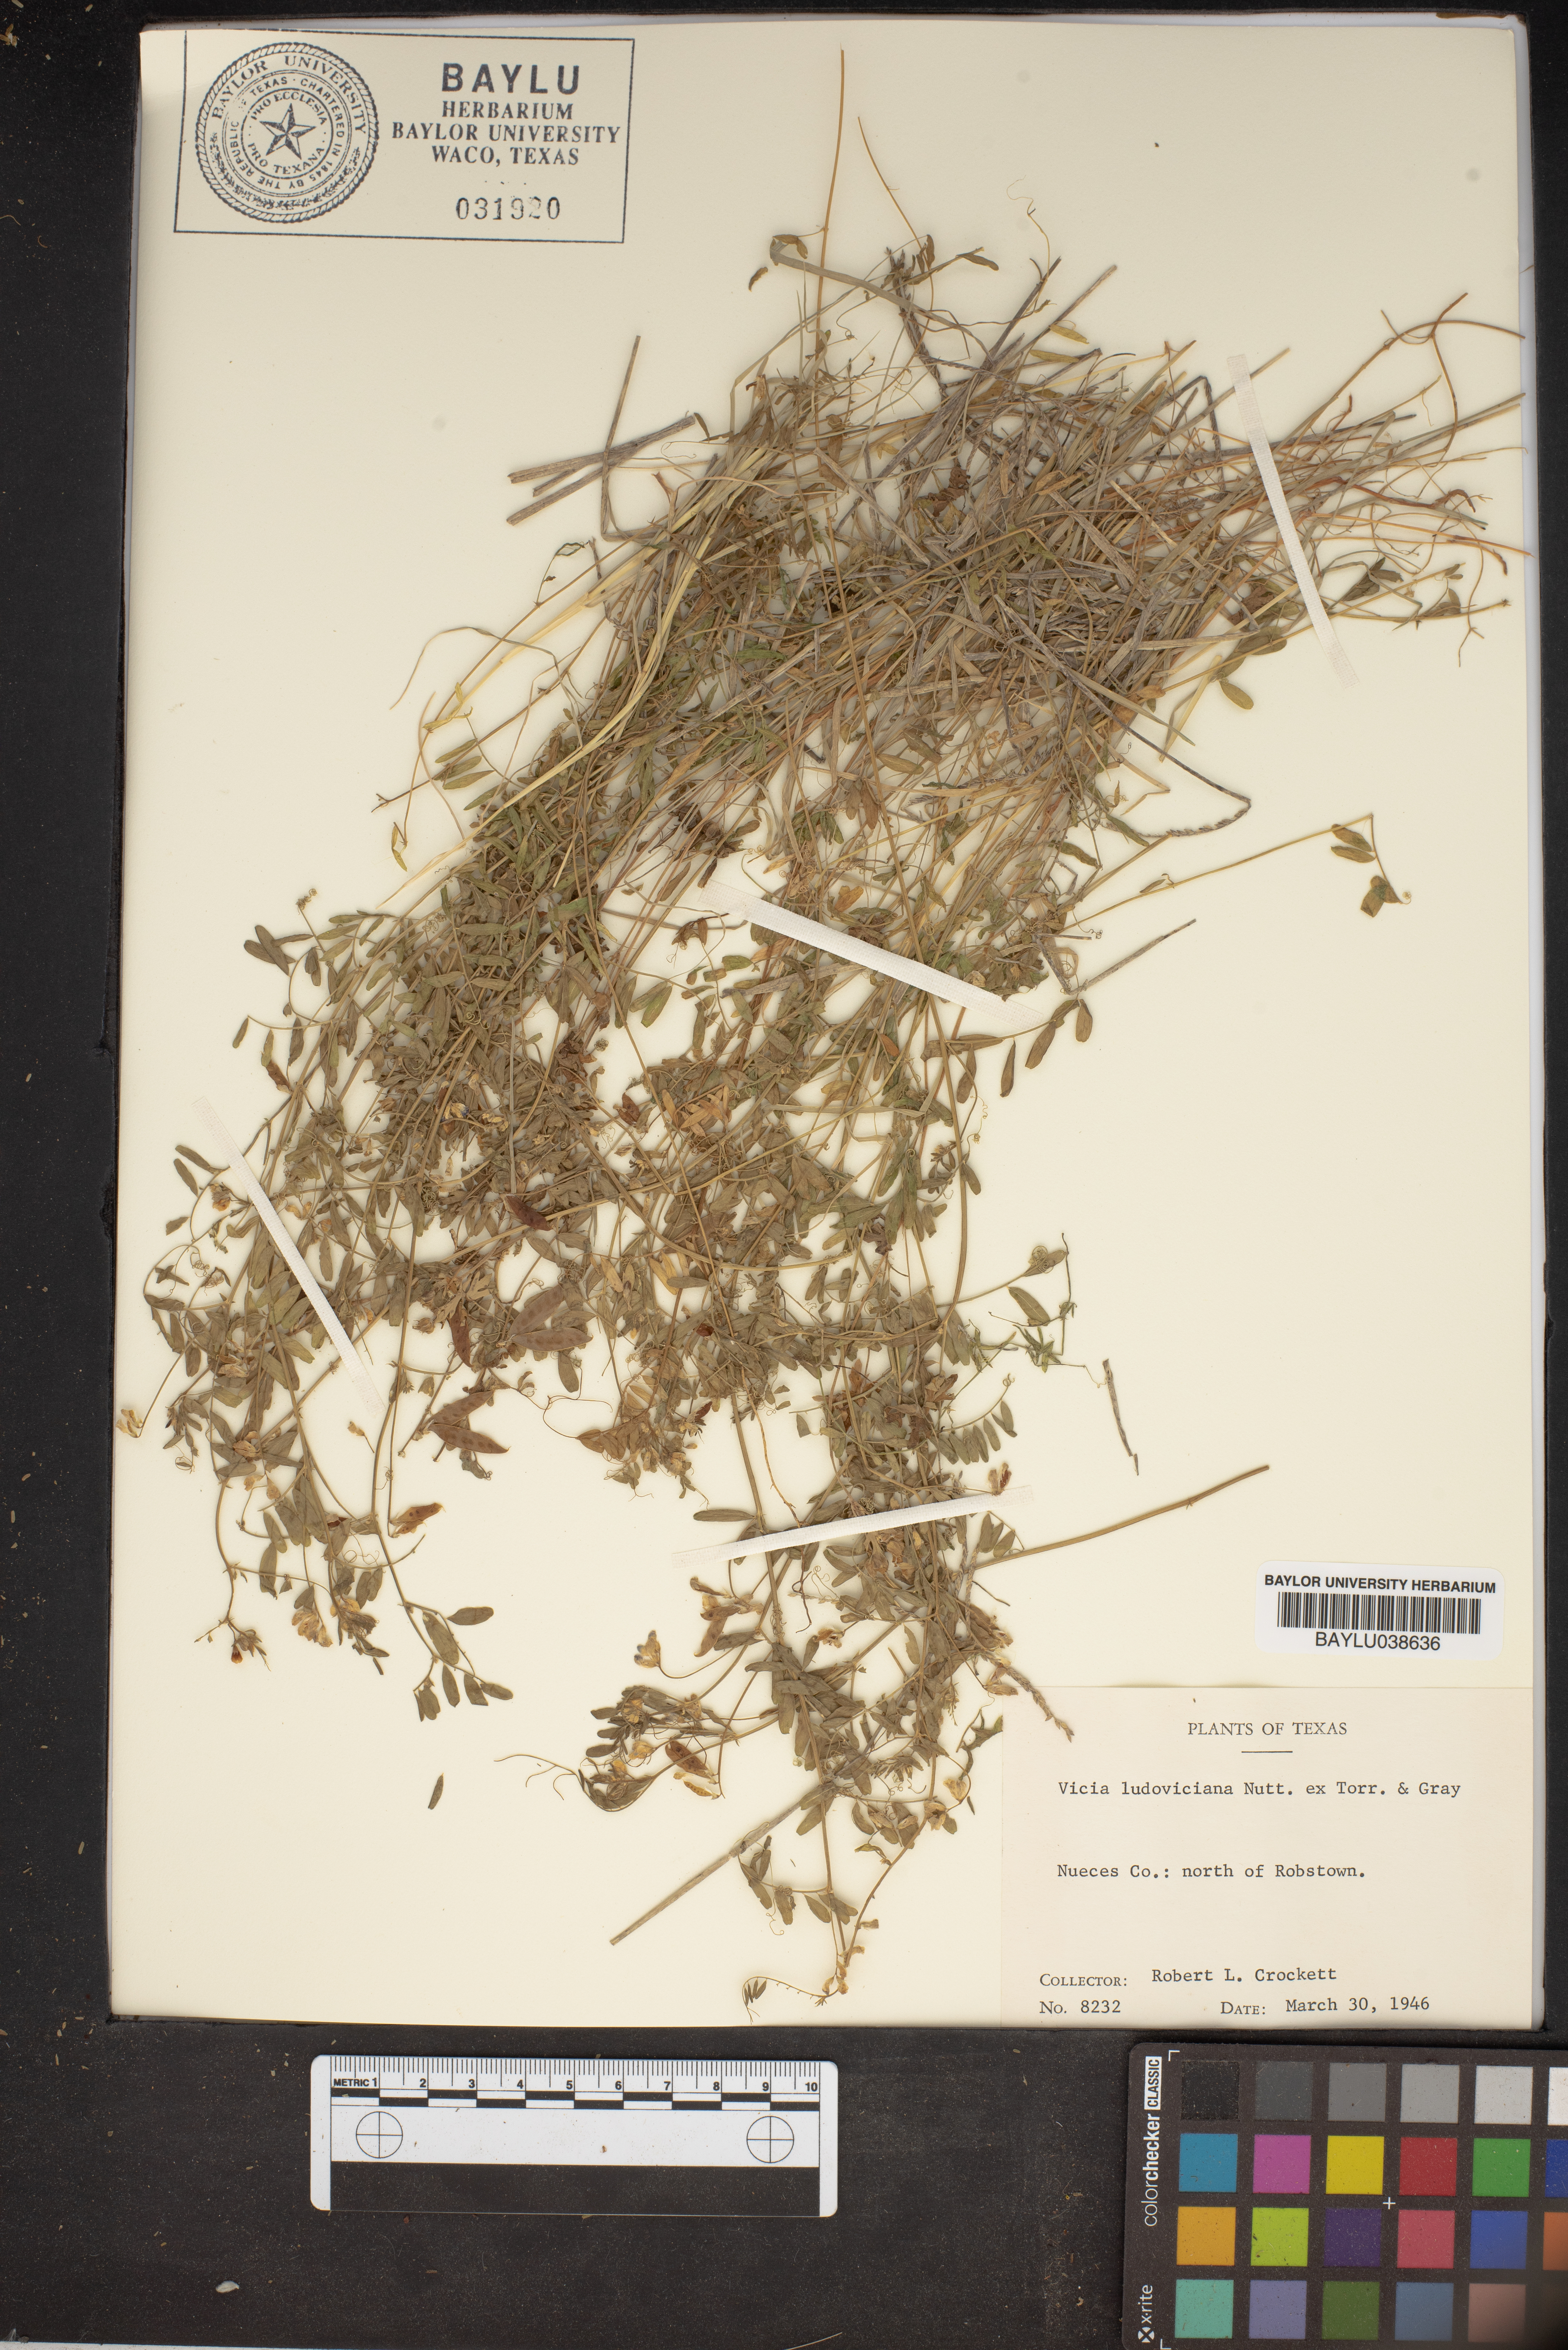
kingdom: Plantae
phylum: Tracheophyta
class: Magnoliopsida
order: Fabales
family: Fabaceae
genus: Vicia
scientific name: Vicia ludoviciana
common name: Louisiana vetch
